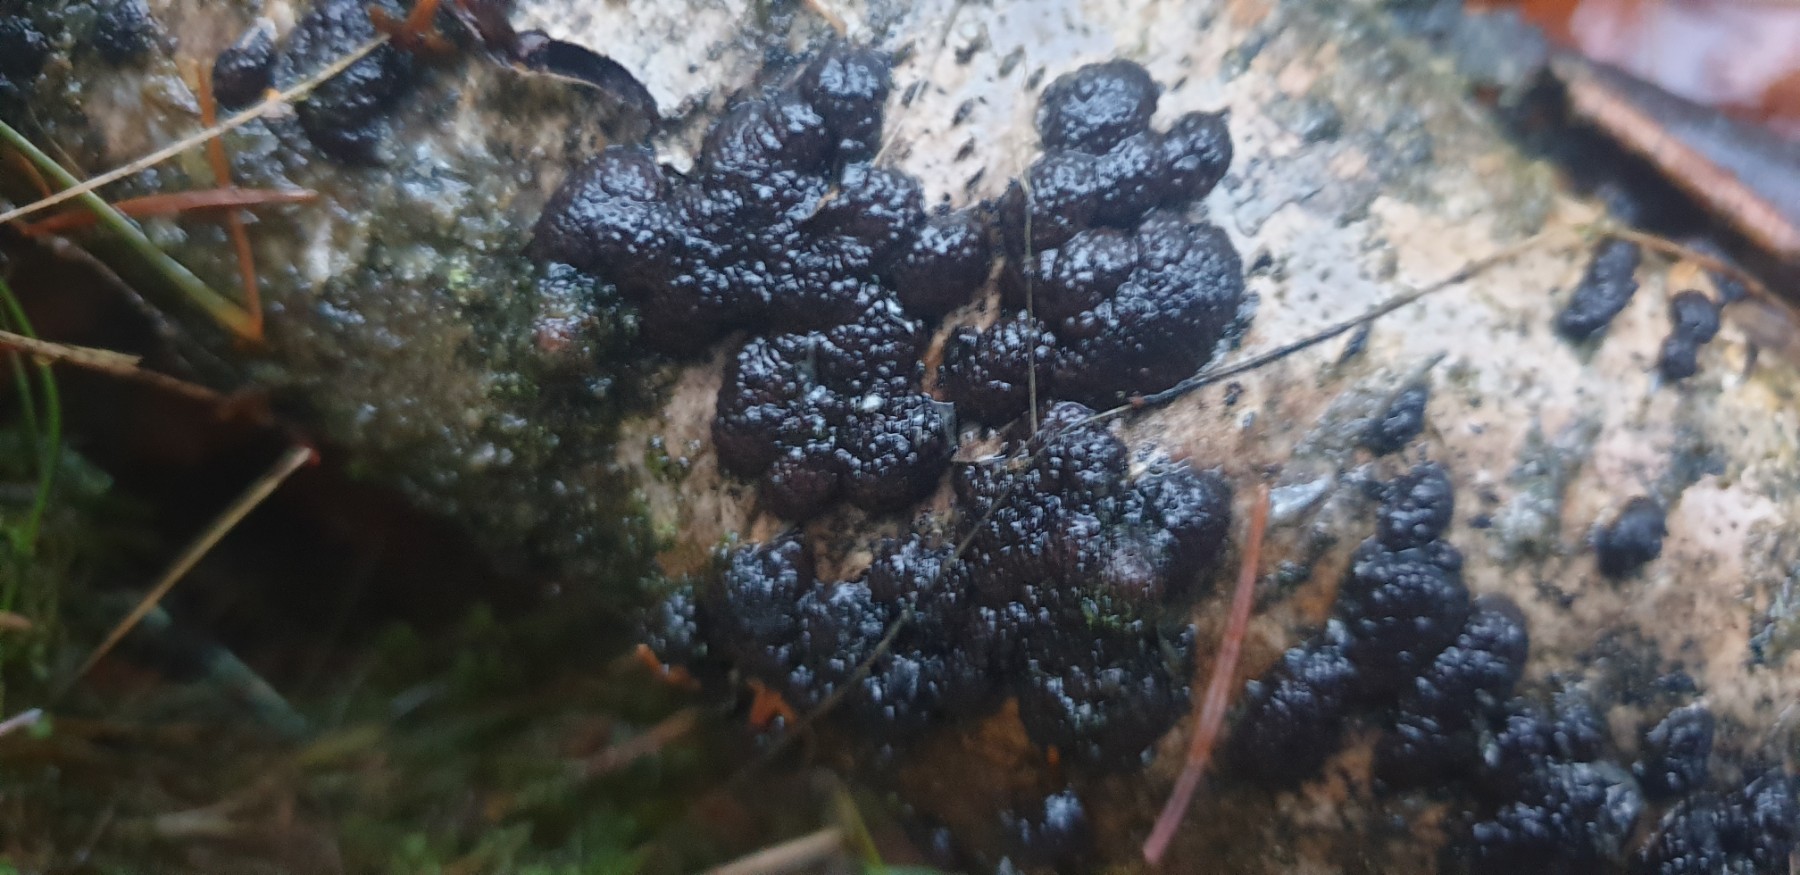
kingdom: Fungi
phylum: Ascomycota
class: Sordariomycetes
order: Xylariales
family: Hypoxylaceae
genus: Jackrogersella
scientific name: Jackrogersella multiformis
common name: foranderlig kulbær
